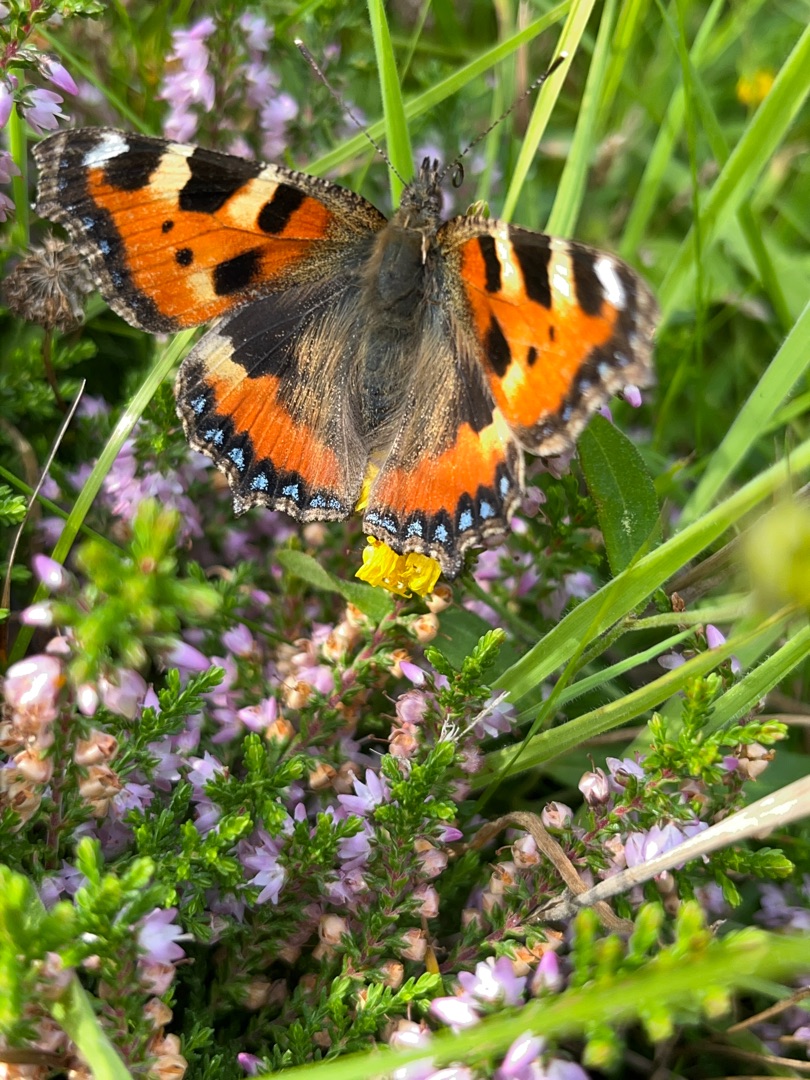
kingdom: Animalia
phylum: Arthropoda
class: Insecta
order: Lepidoptera
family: Nymphalidae
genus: Aglais
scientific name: Aglais urticae
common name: Nældens takvinge
